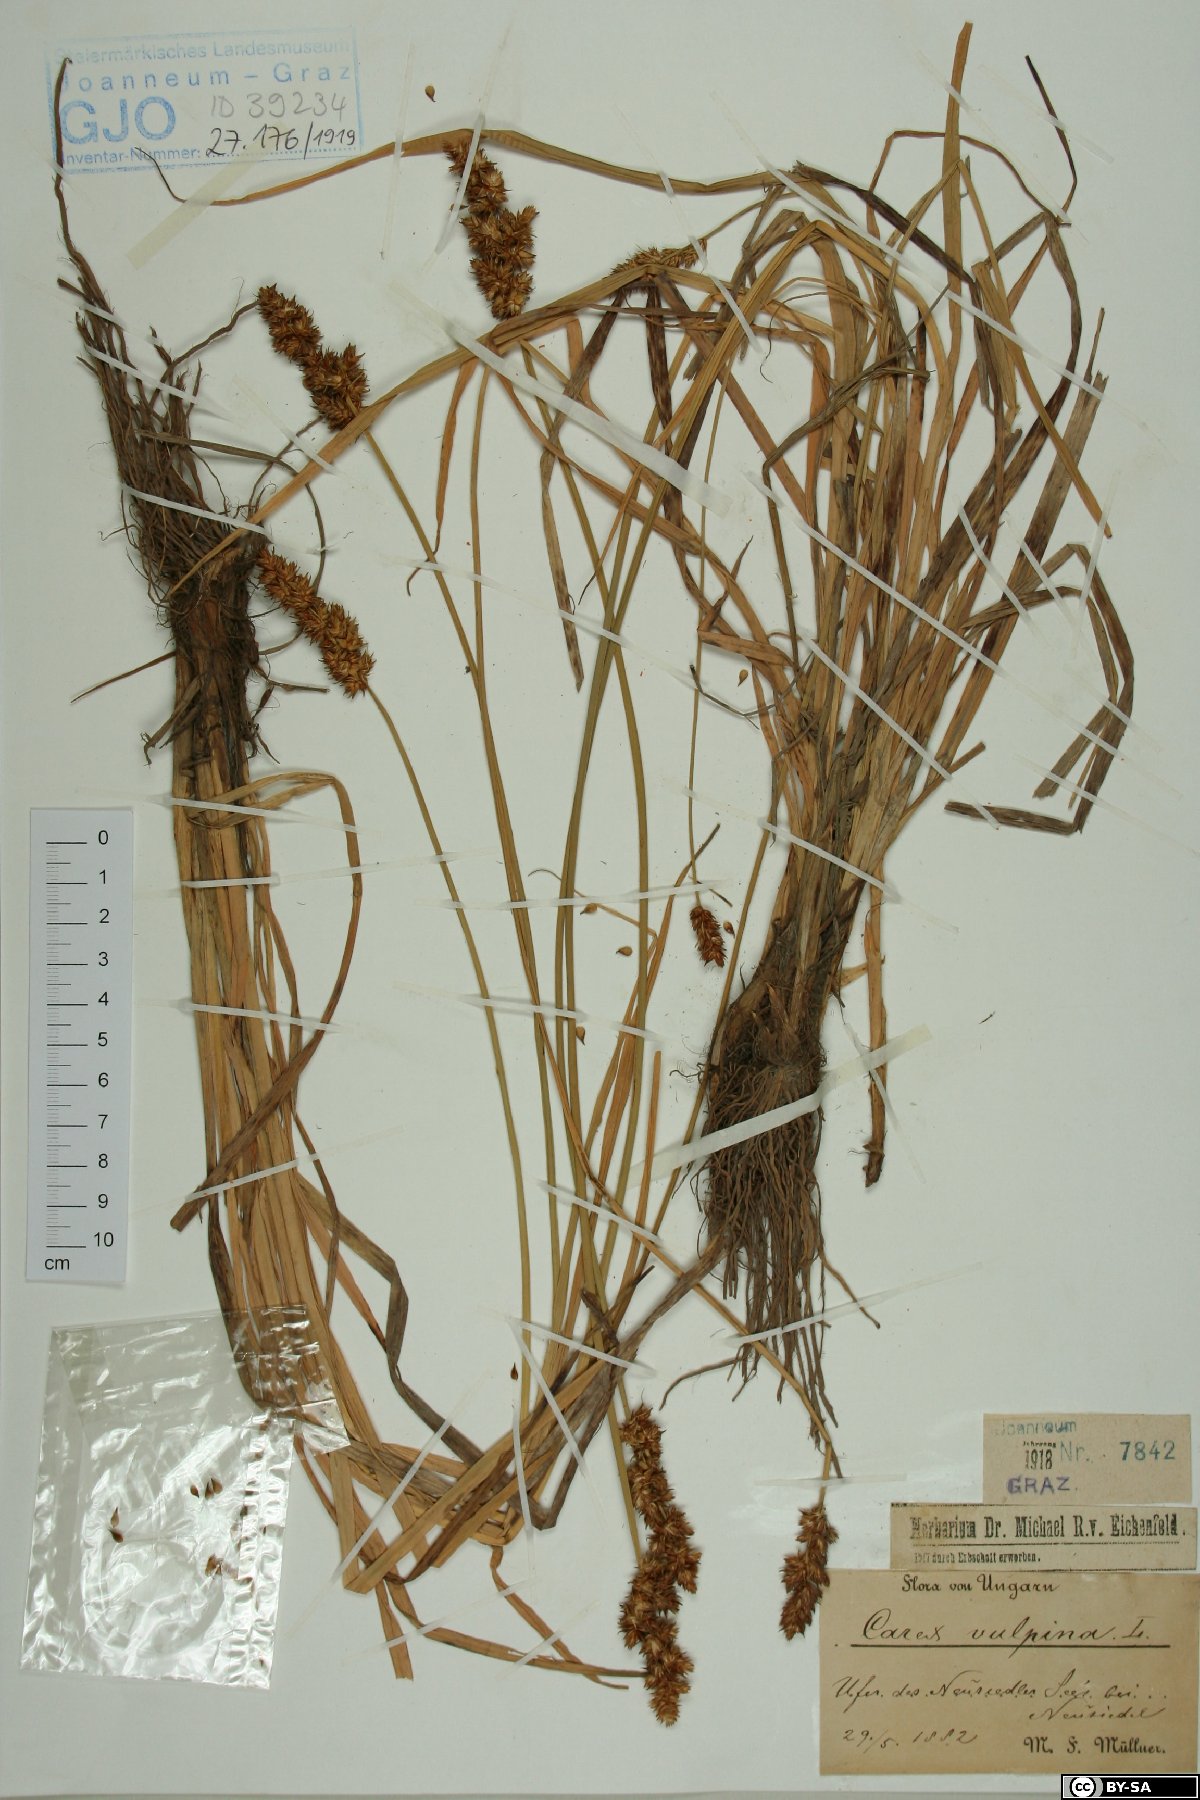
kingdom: Plantae
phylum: Tracheophyta
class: Liliopsida
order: Poales
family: Cyperaceae
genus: Carex
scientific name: Carex vulpina
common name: True fox-sedge
